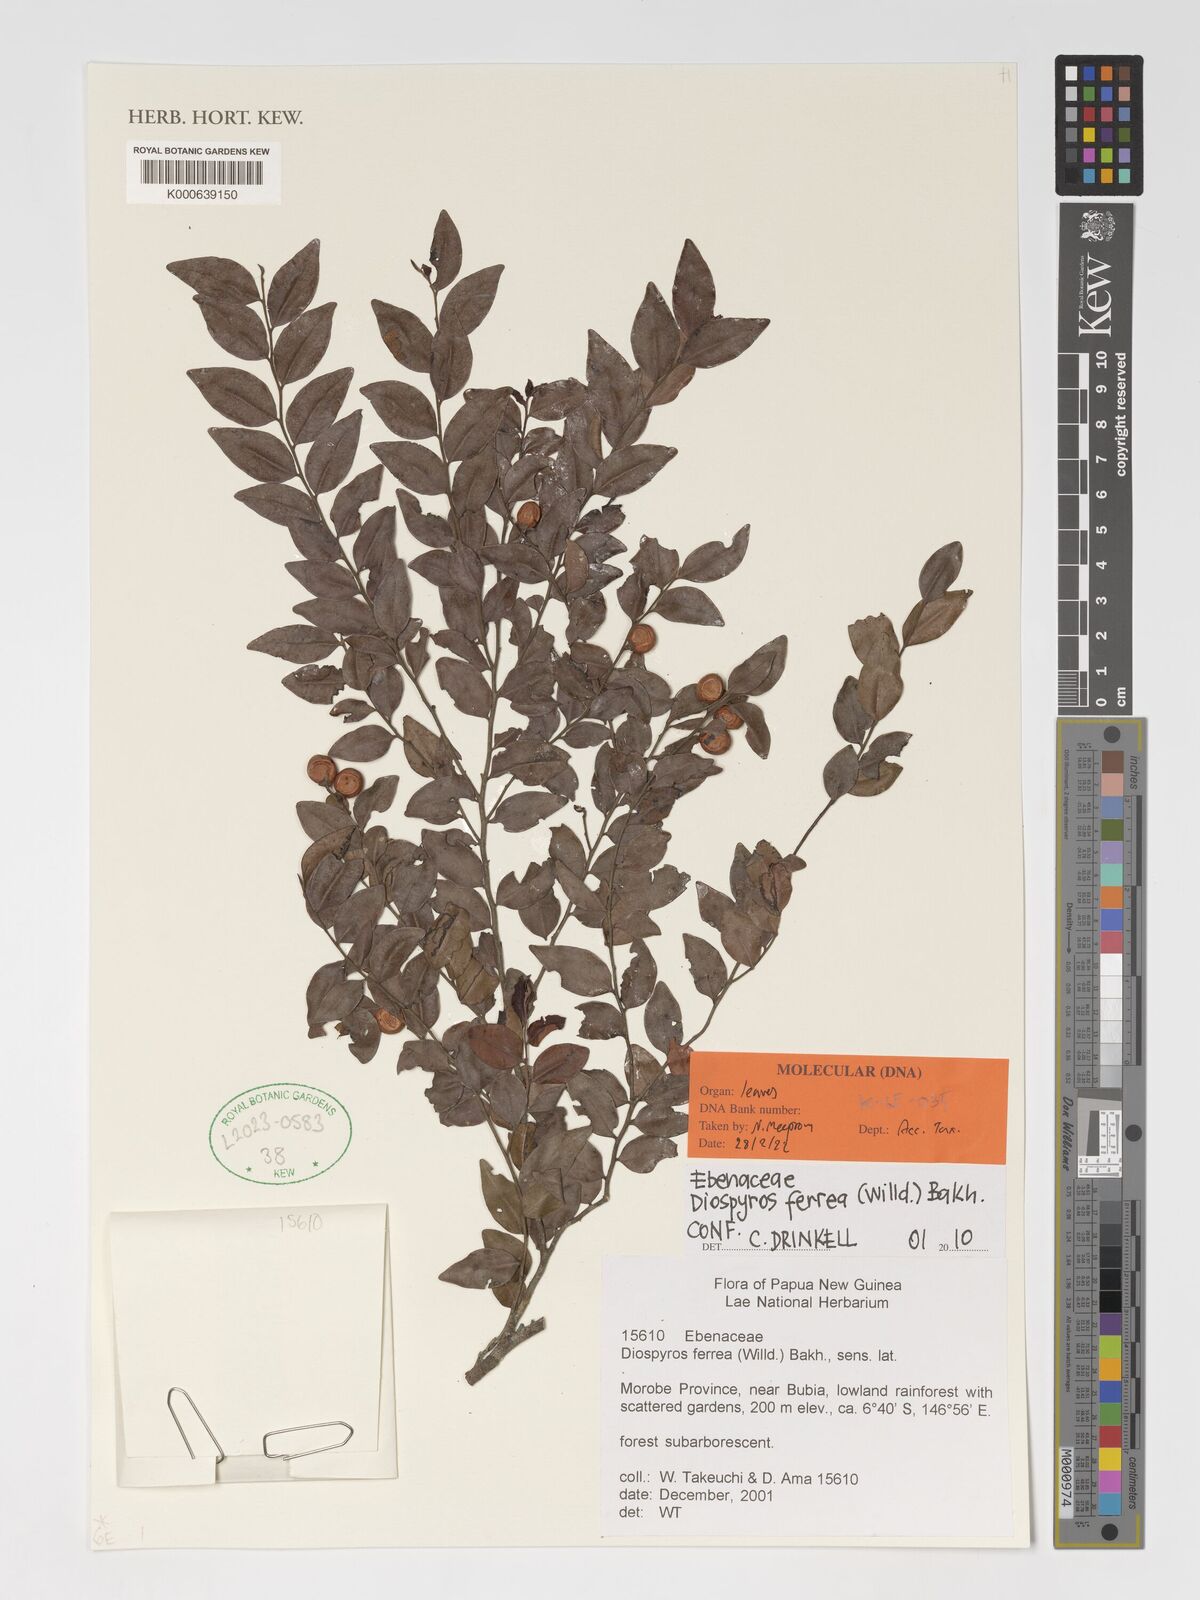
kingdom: Plantae
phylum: Tracheophyta
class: Magnoliopsida
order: Ericales
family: Ebenaceae
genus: Diospyros
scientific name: Diospyros ferrea
